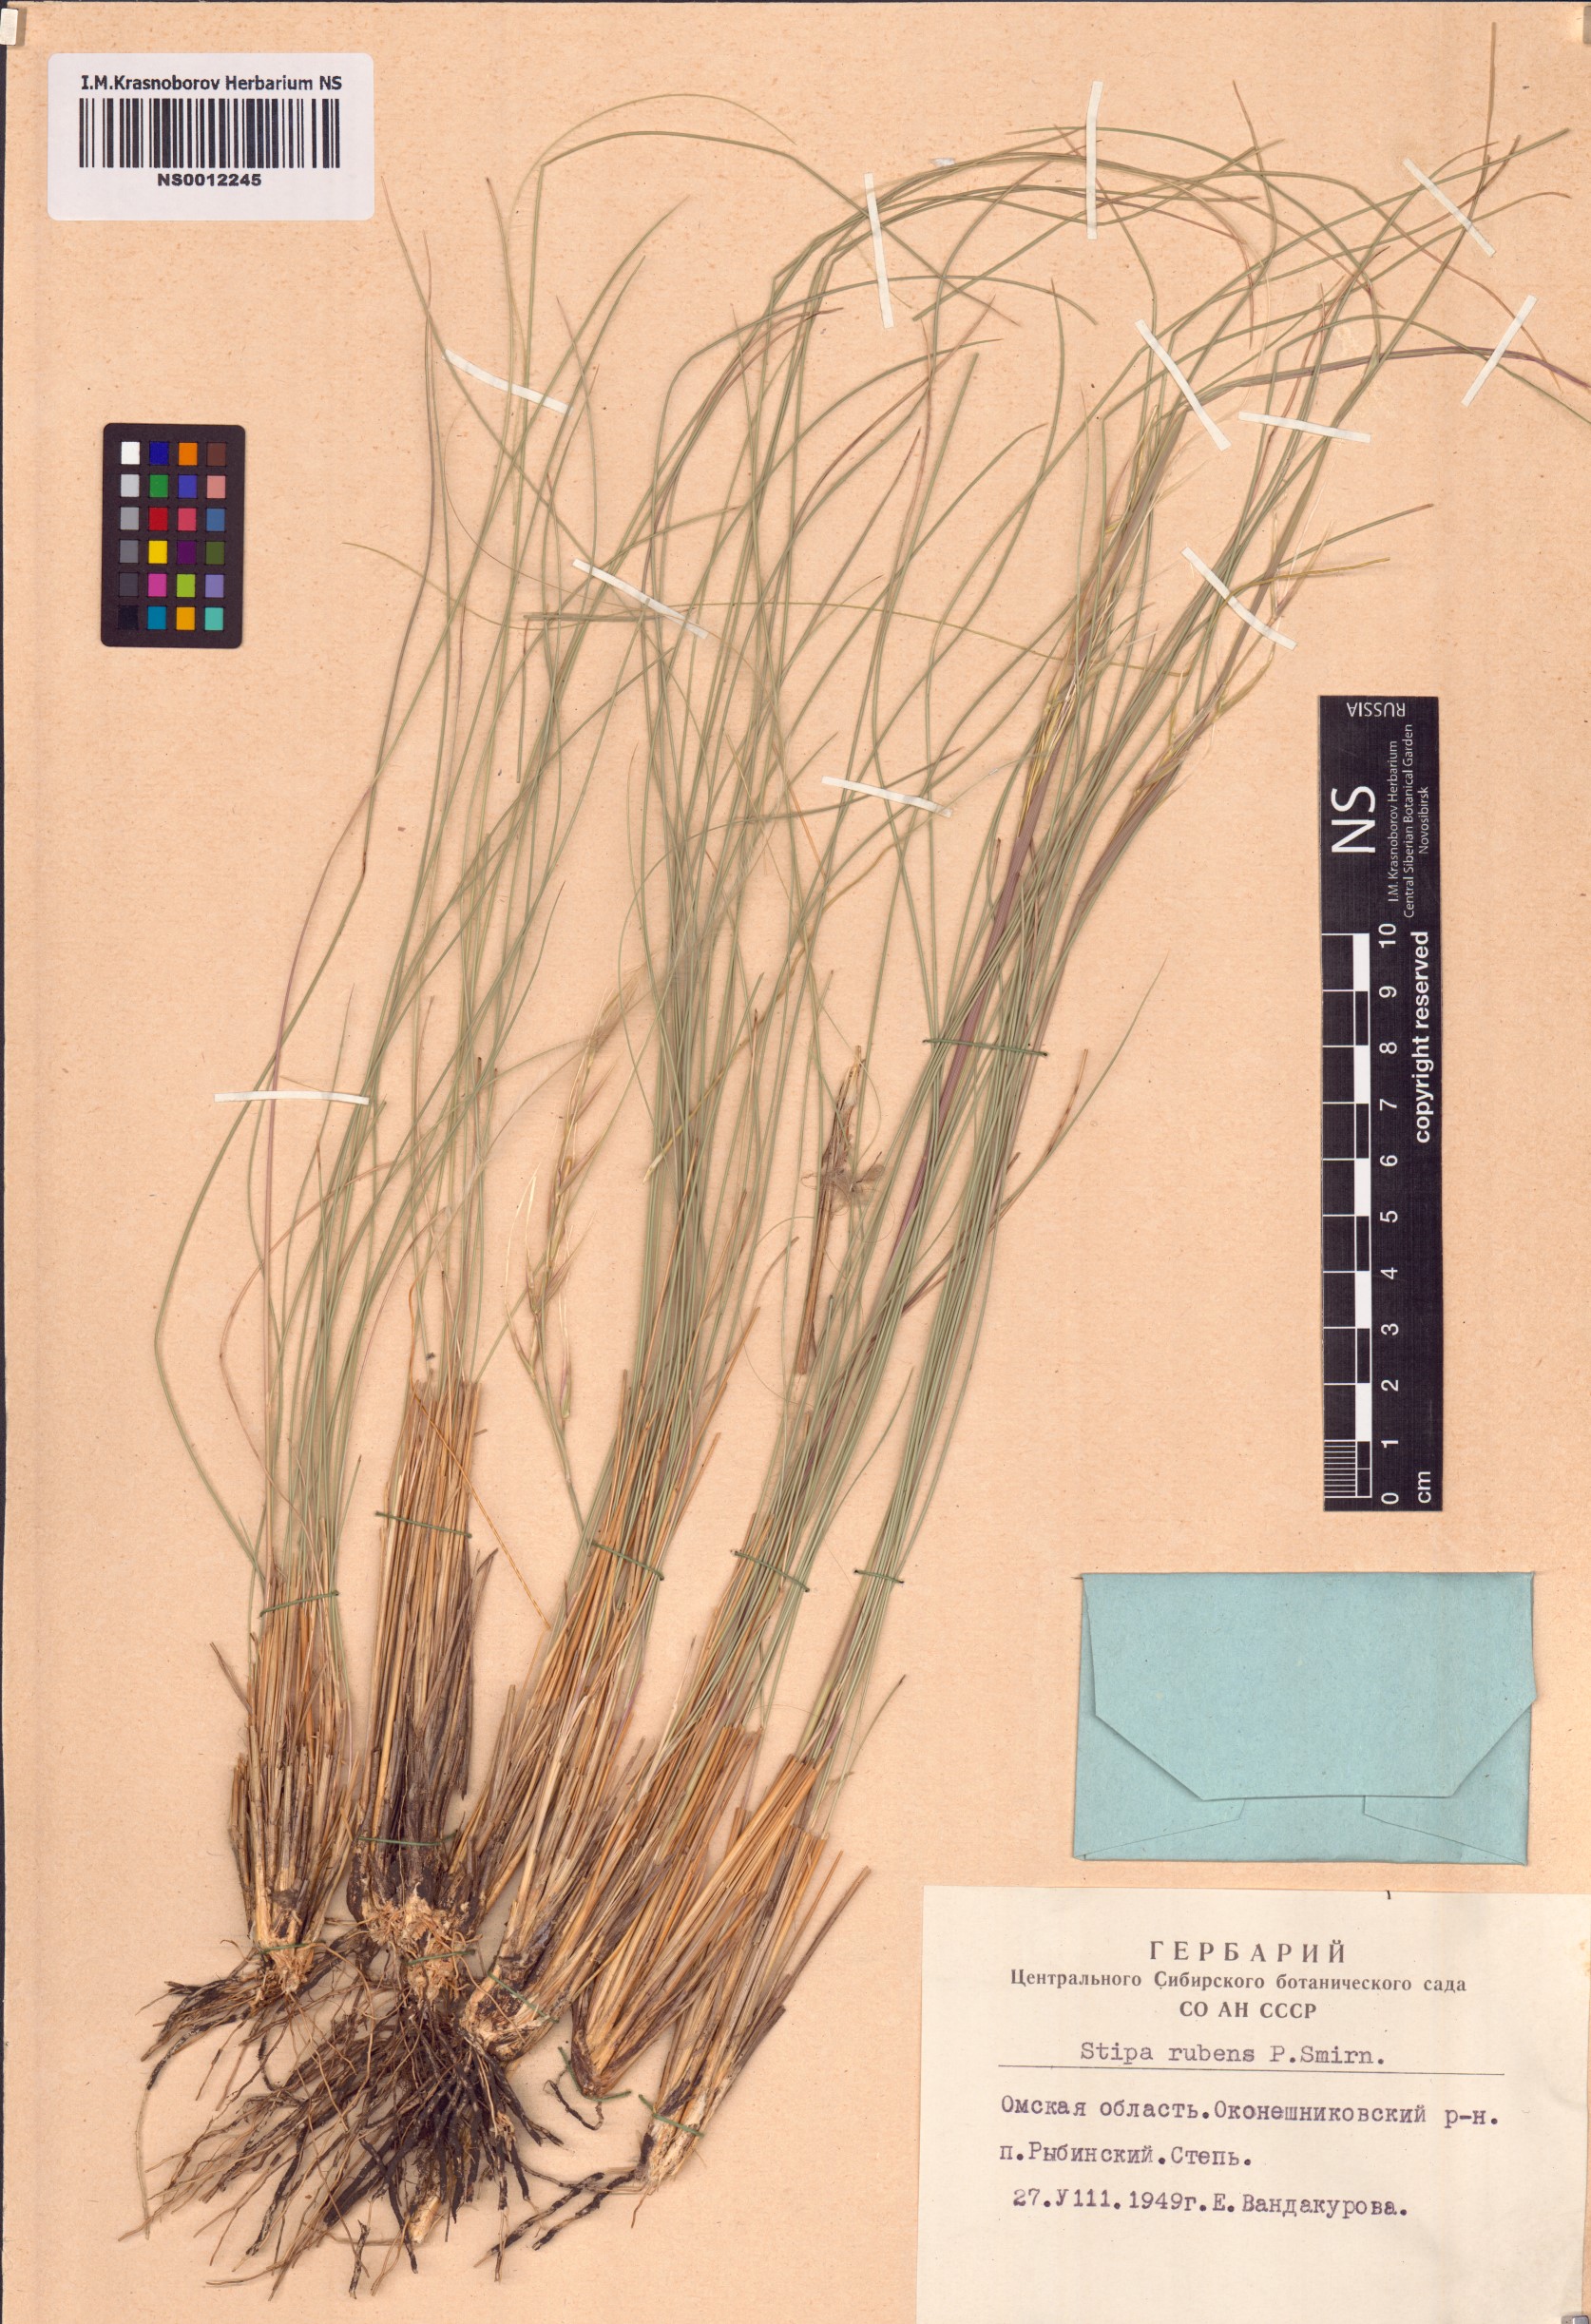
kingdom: Plantae
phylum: Tracheophyta
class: Liliopsida
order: Poales
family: Poaceae
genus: Stipa
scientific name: Stipa zalesskyi
